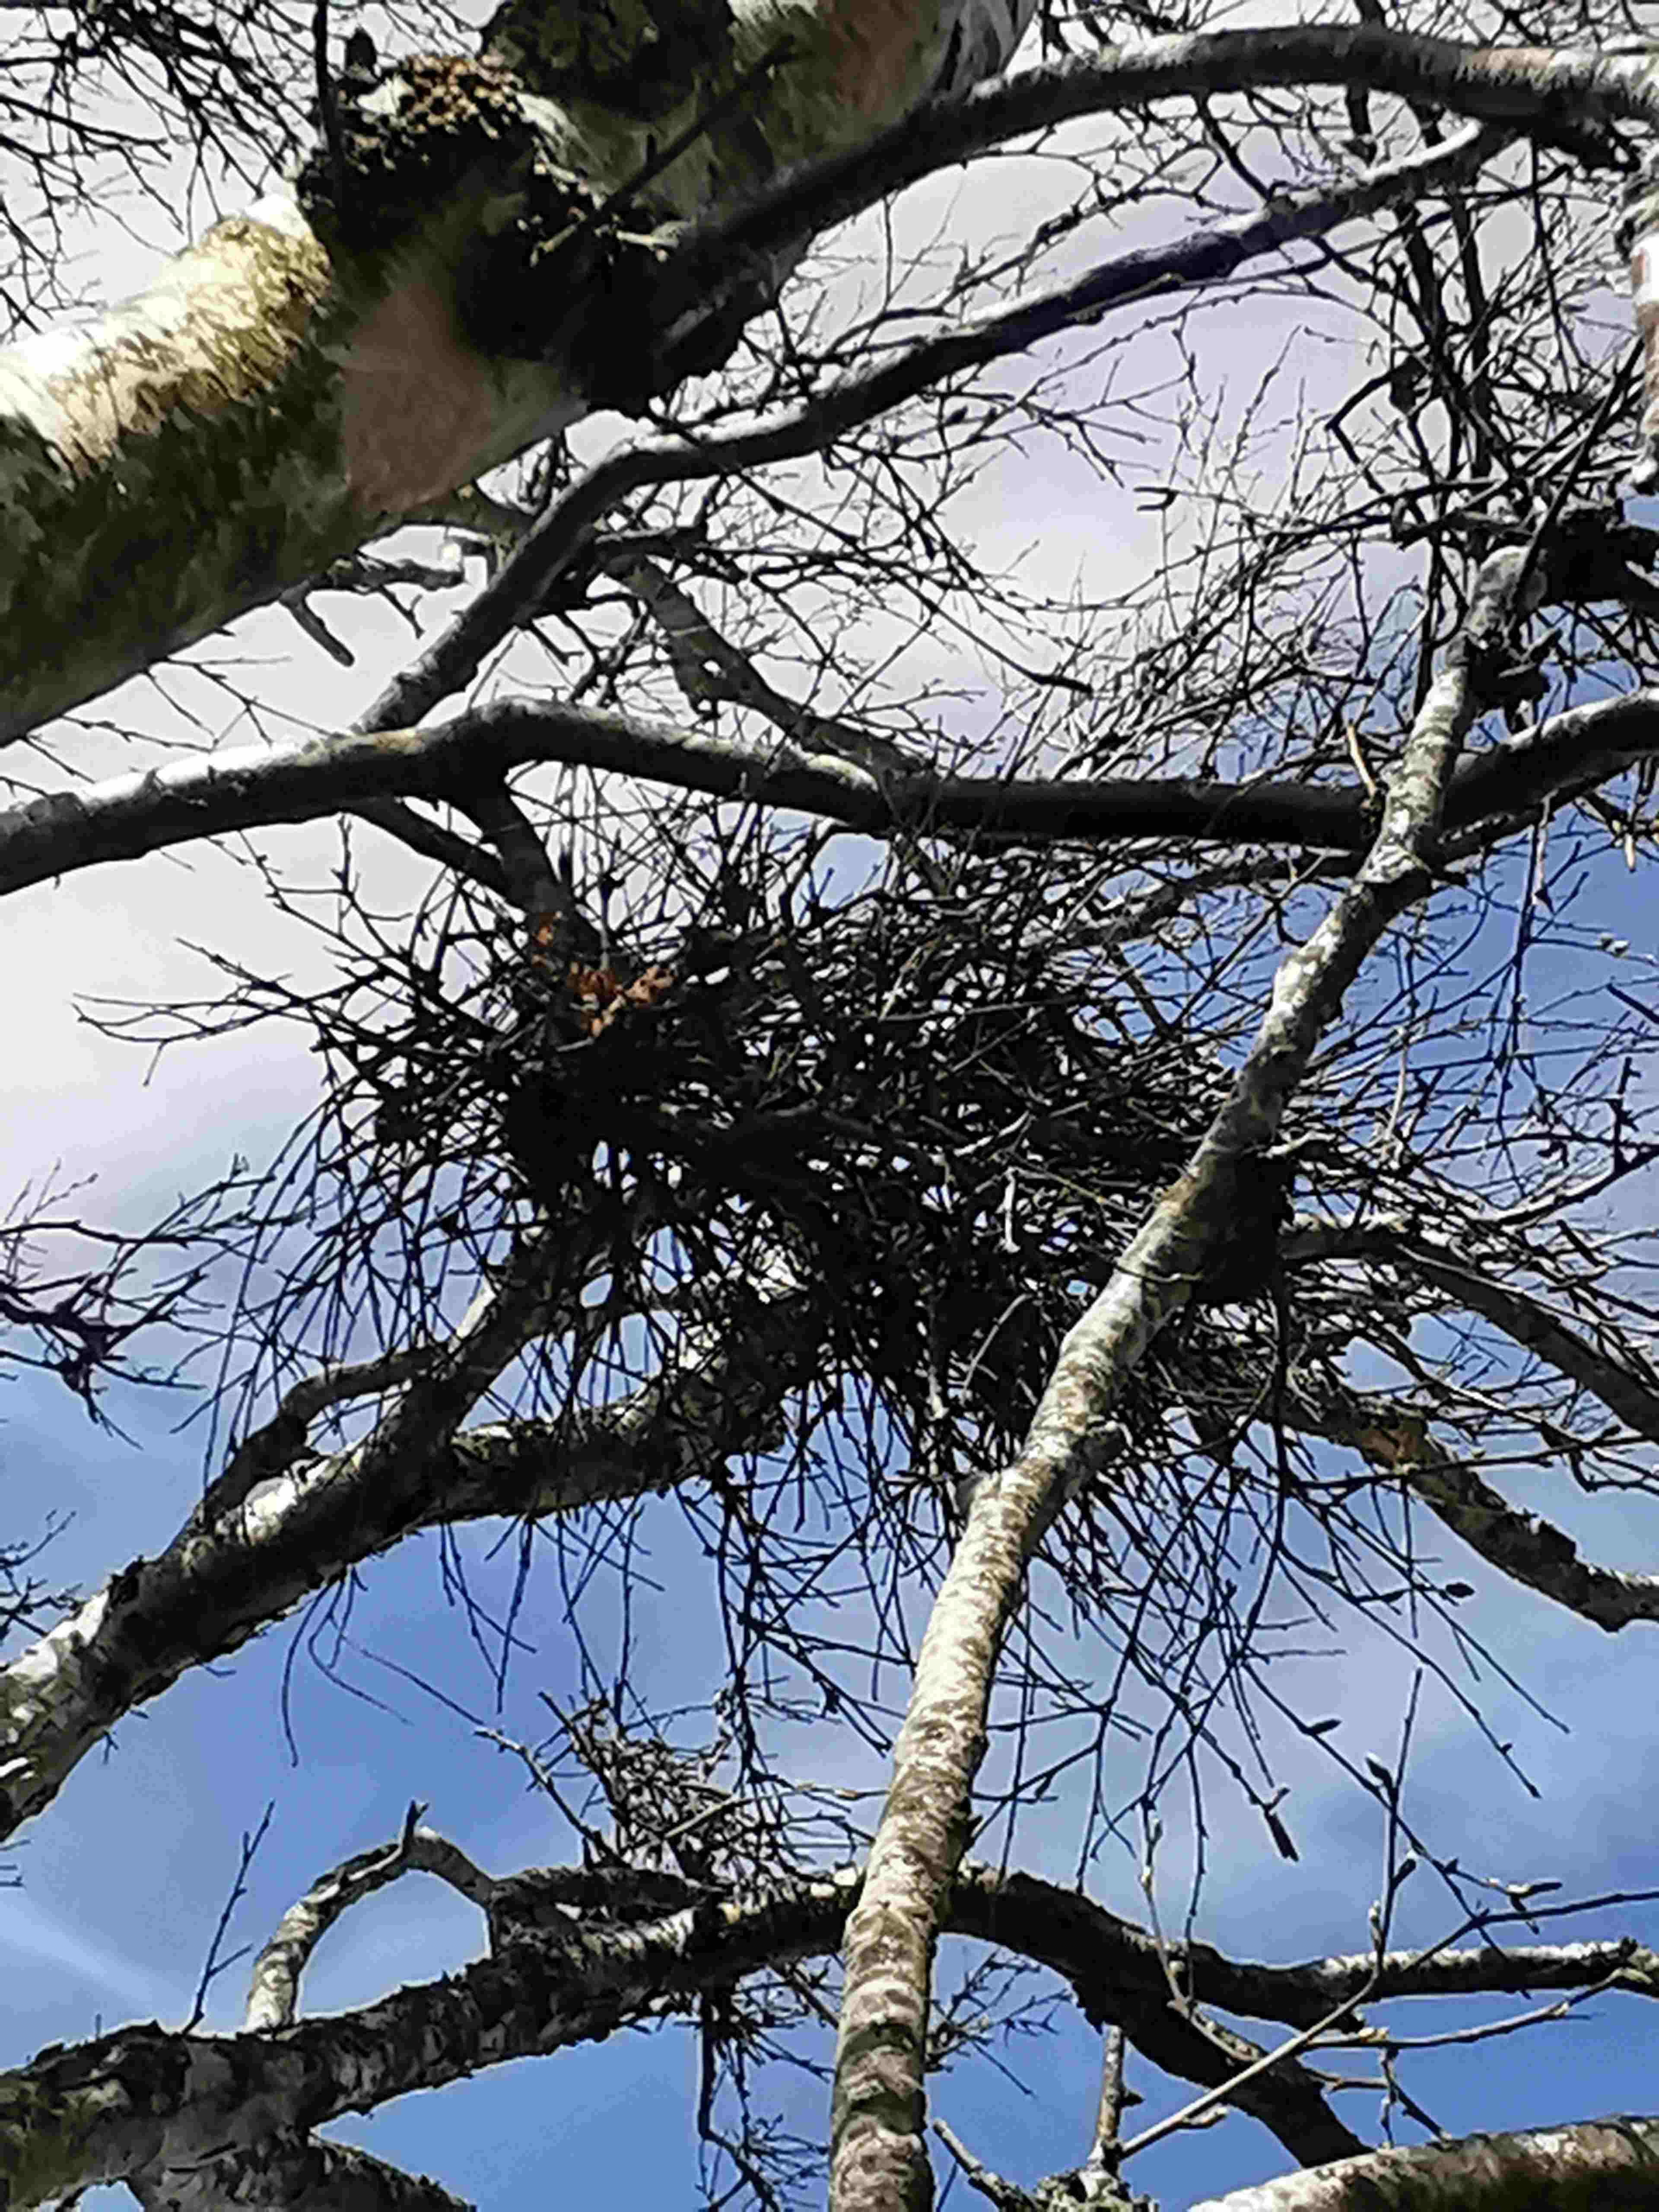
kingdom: Fungi
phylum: Ascomycota
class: Taphrinomycetes
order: Taphrinales
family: Taphrinaceae
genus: Taphrina
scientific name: Taphrina betulina
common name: hekse-sækdug
